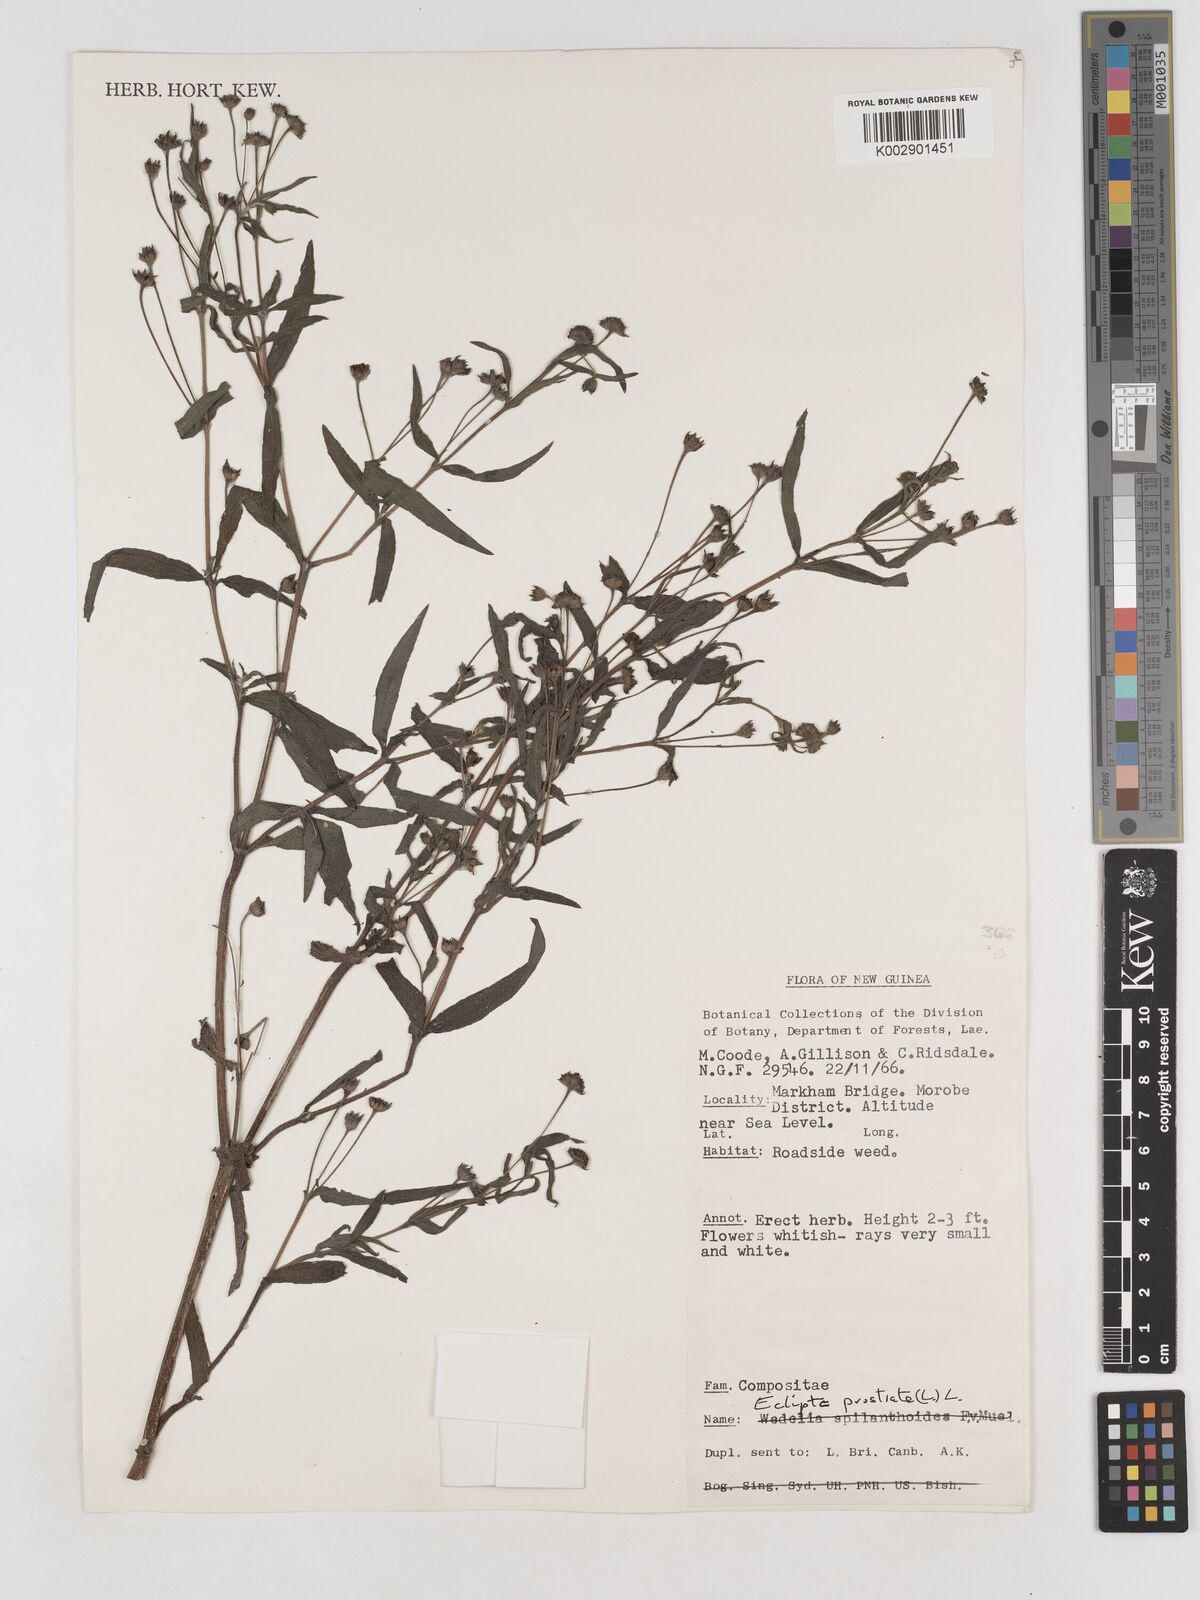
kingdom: Plantae
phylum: Tracheophyta
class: Magnoliopsida
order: Asterales
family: Asteraceae
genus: Eclipta
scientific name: Eclipta prostrata
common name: False daisy
